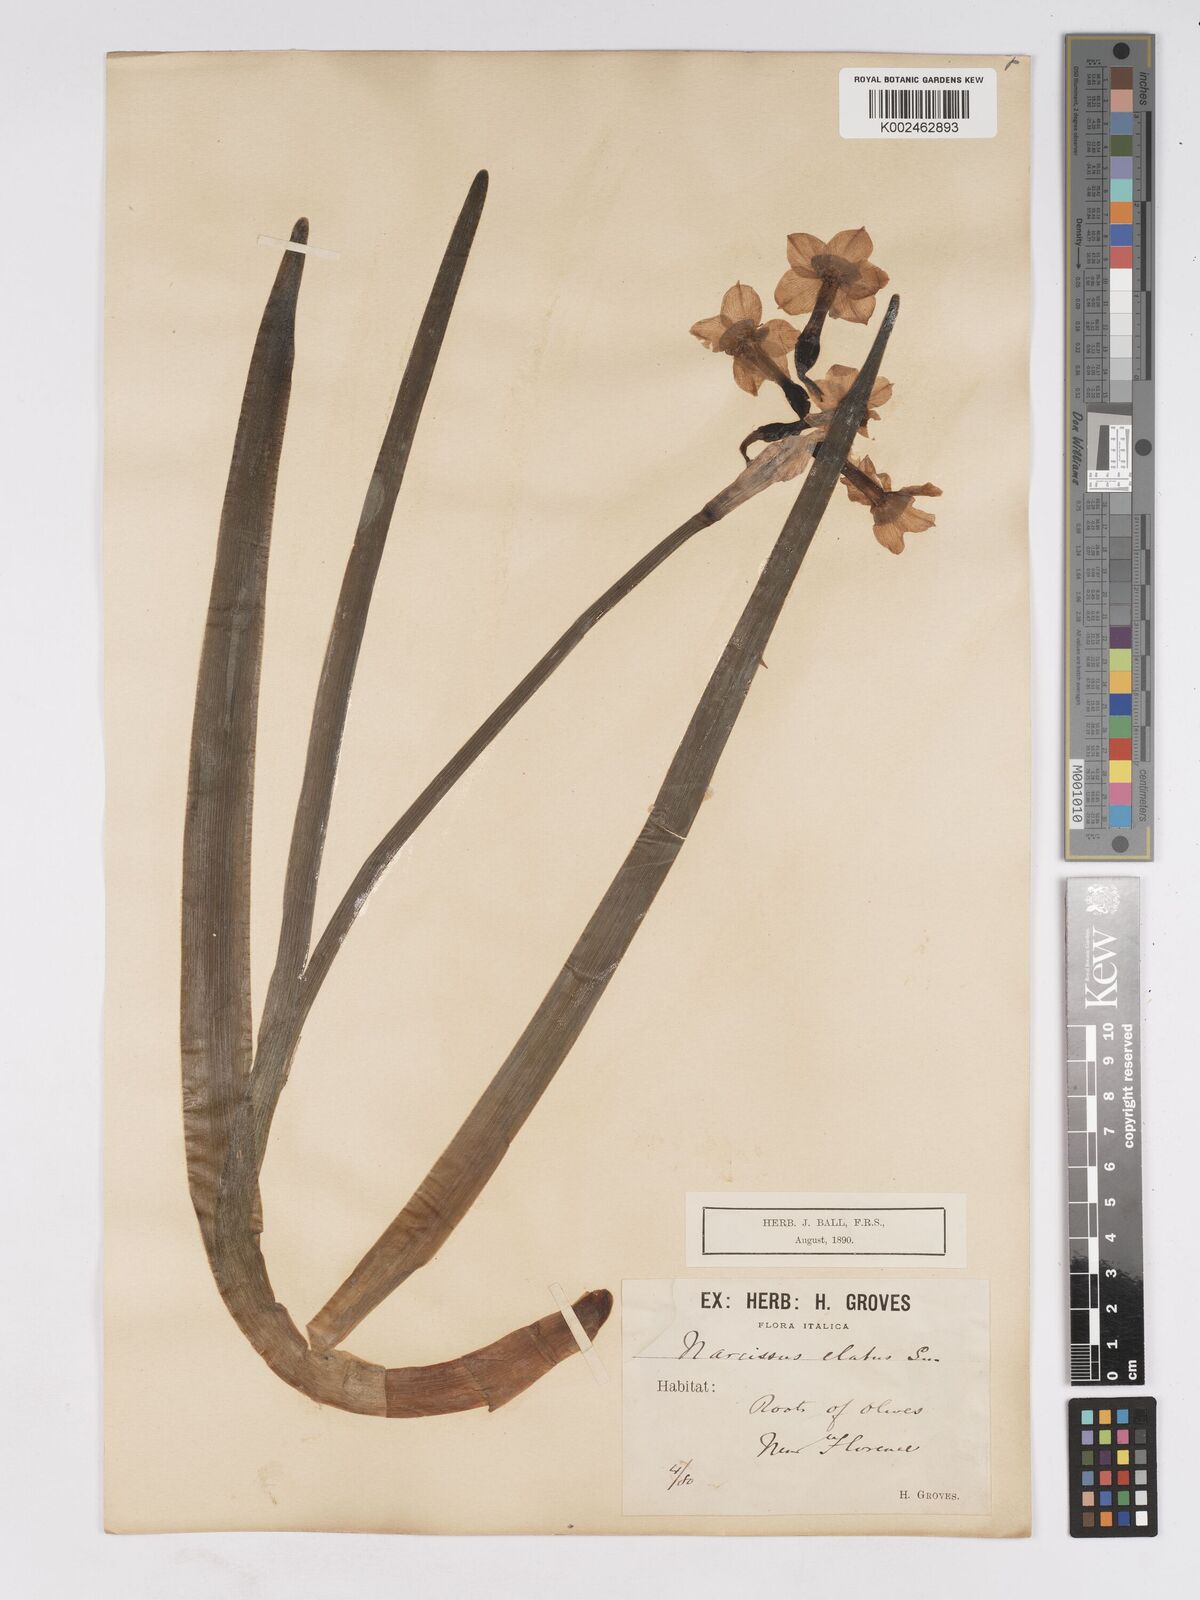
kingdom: Plantae
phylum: Tracheophyta
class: Liliopsida
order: Asparagales
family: Amaryllidaceae
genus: Narcissus
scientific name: Narcissus
